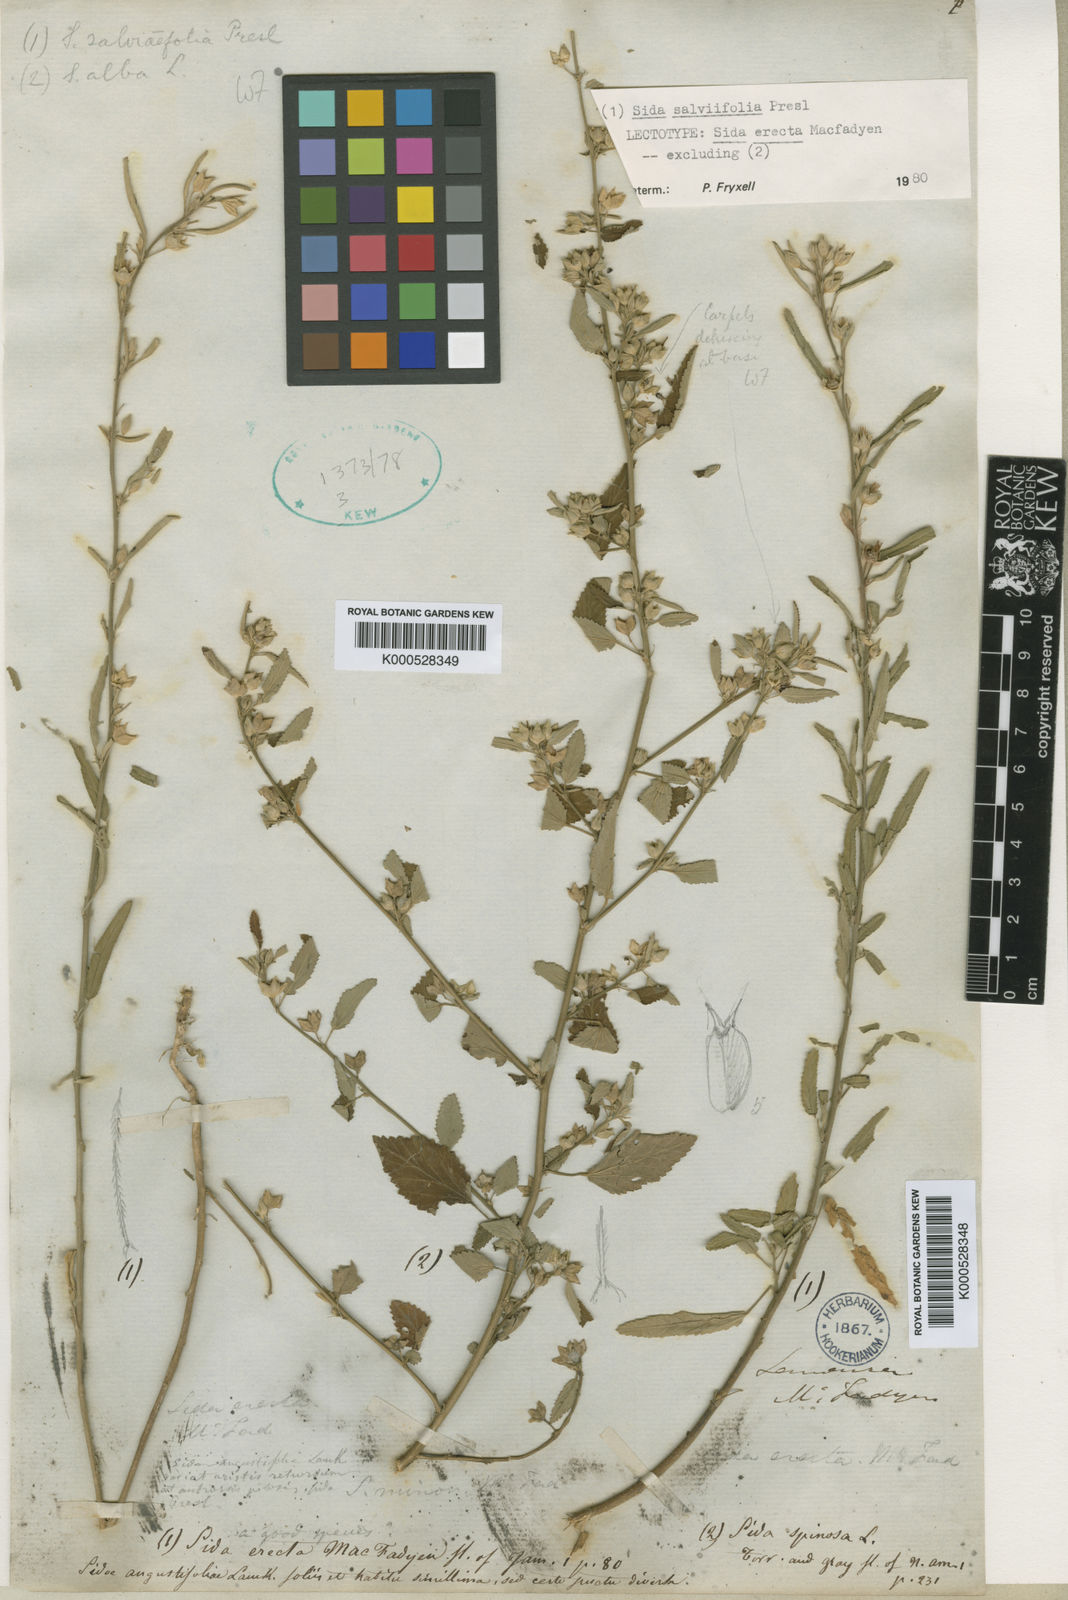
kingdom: Plantae
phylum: Tracheophyta
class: Magnoliopsida
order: Malvales
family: Malvaceae
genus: Sida
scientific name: Sida alba
